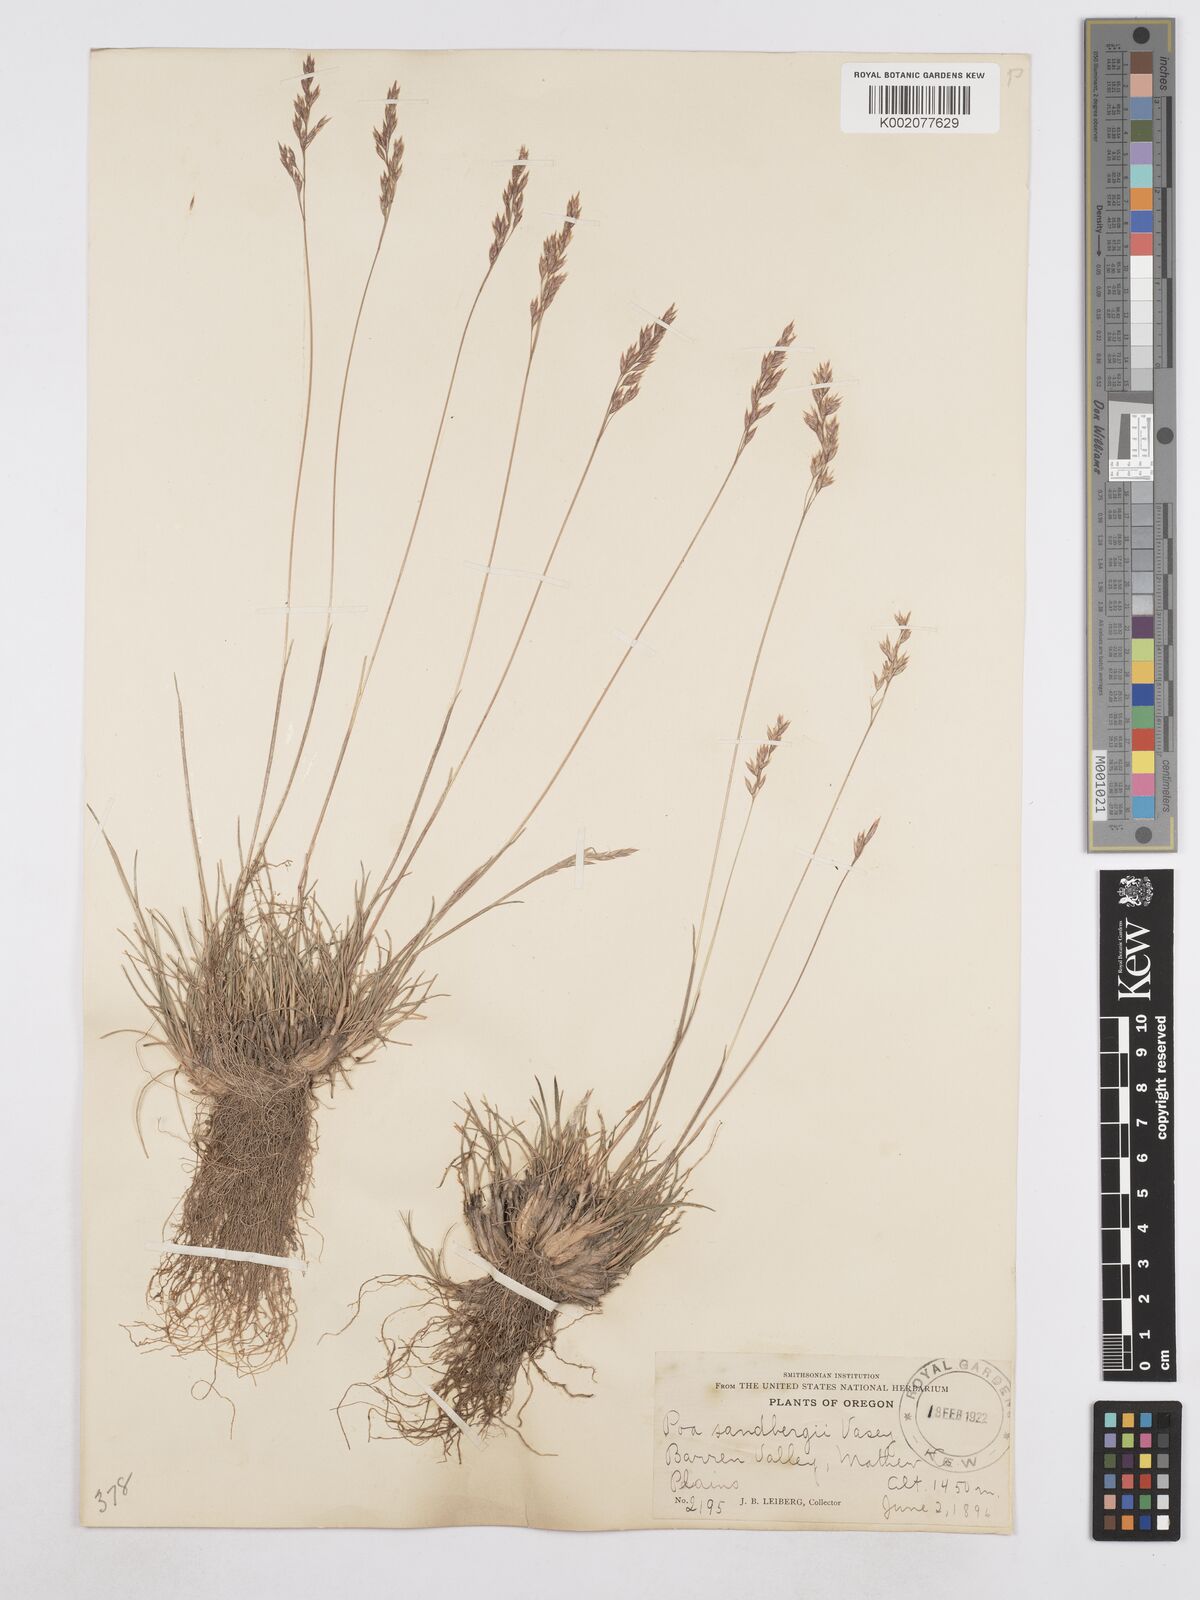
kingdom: Plantae
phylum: Tracheophyta
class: Liliopsida
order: Poales
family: Poaceae
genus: Poa
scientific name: Poa secunda
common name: Sandberg bluegrass
